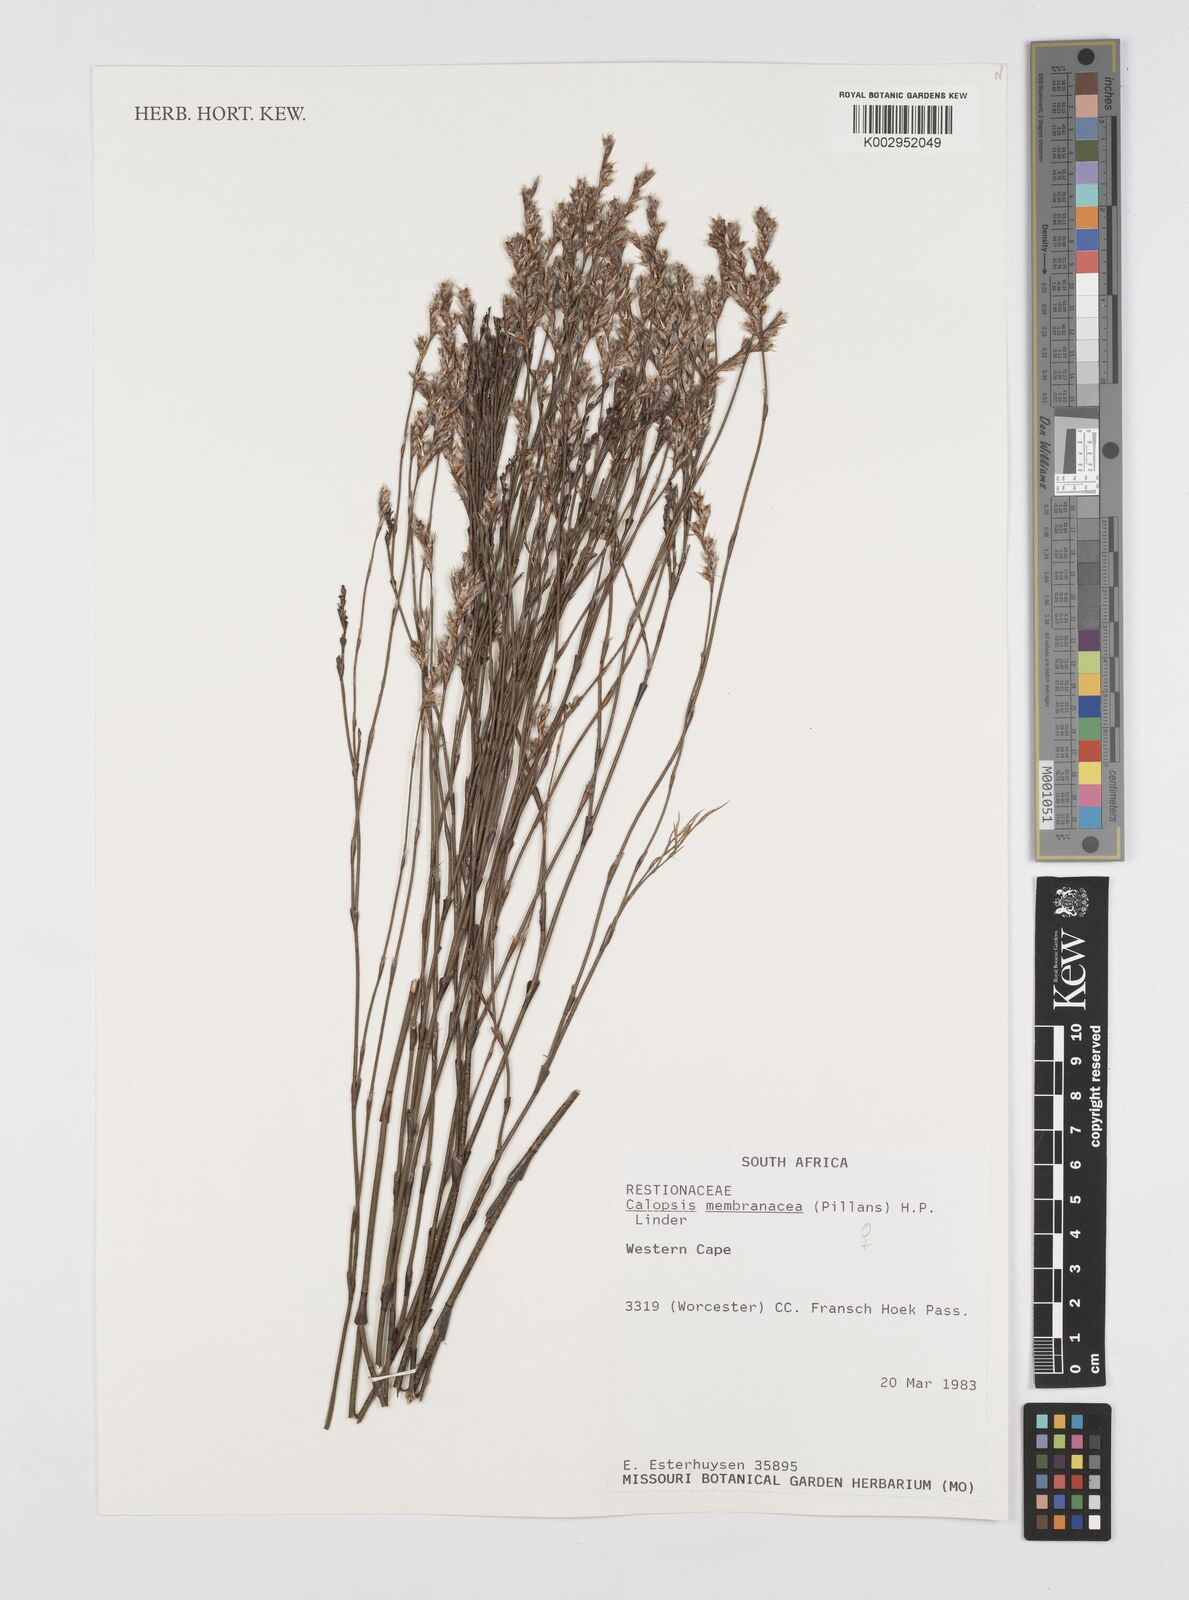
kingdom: Plantae
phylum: Tracheophyta
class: Liliopsida
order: Poales
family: Restionaceae
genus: Elegia
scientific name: Elegia intermedia
